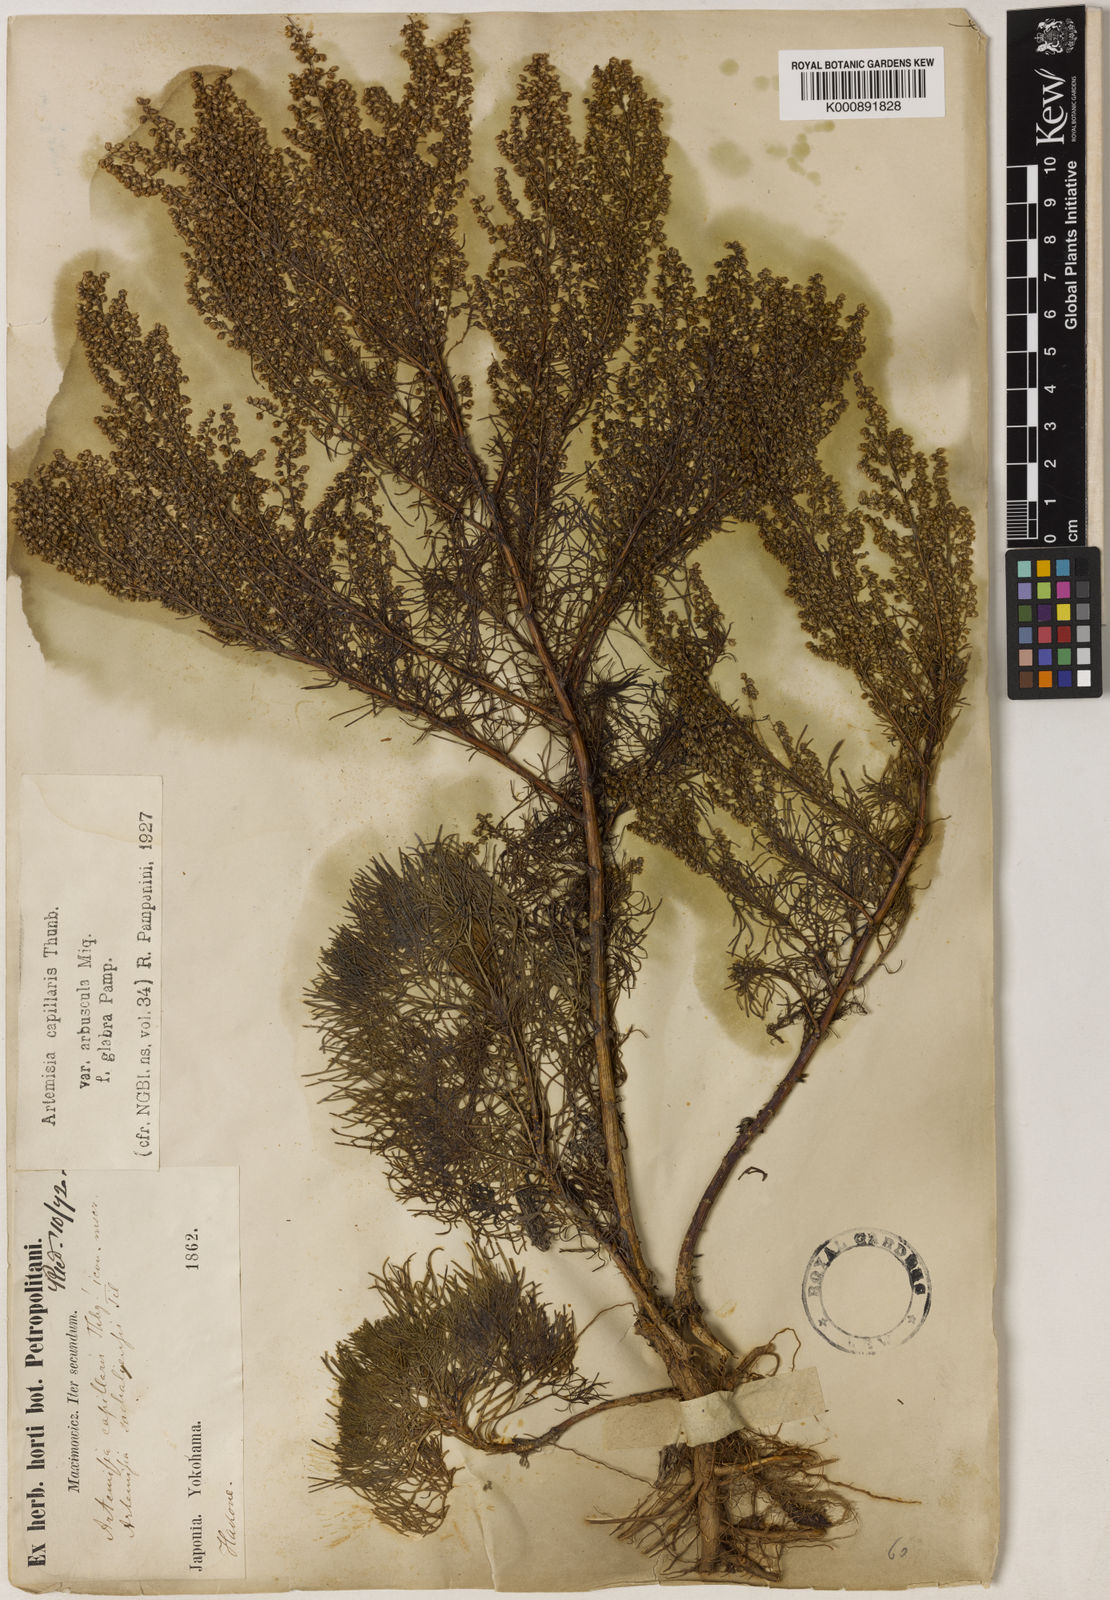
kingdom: Plantae
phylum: Tracheophyta
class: Magnoliopsida
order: Asterales
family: Asteraceae
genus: Artemisia
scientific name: Artemisia capillaris
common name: Yin-chen wormwood
